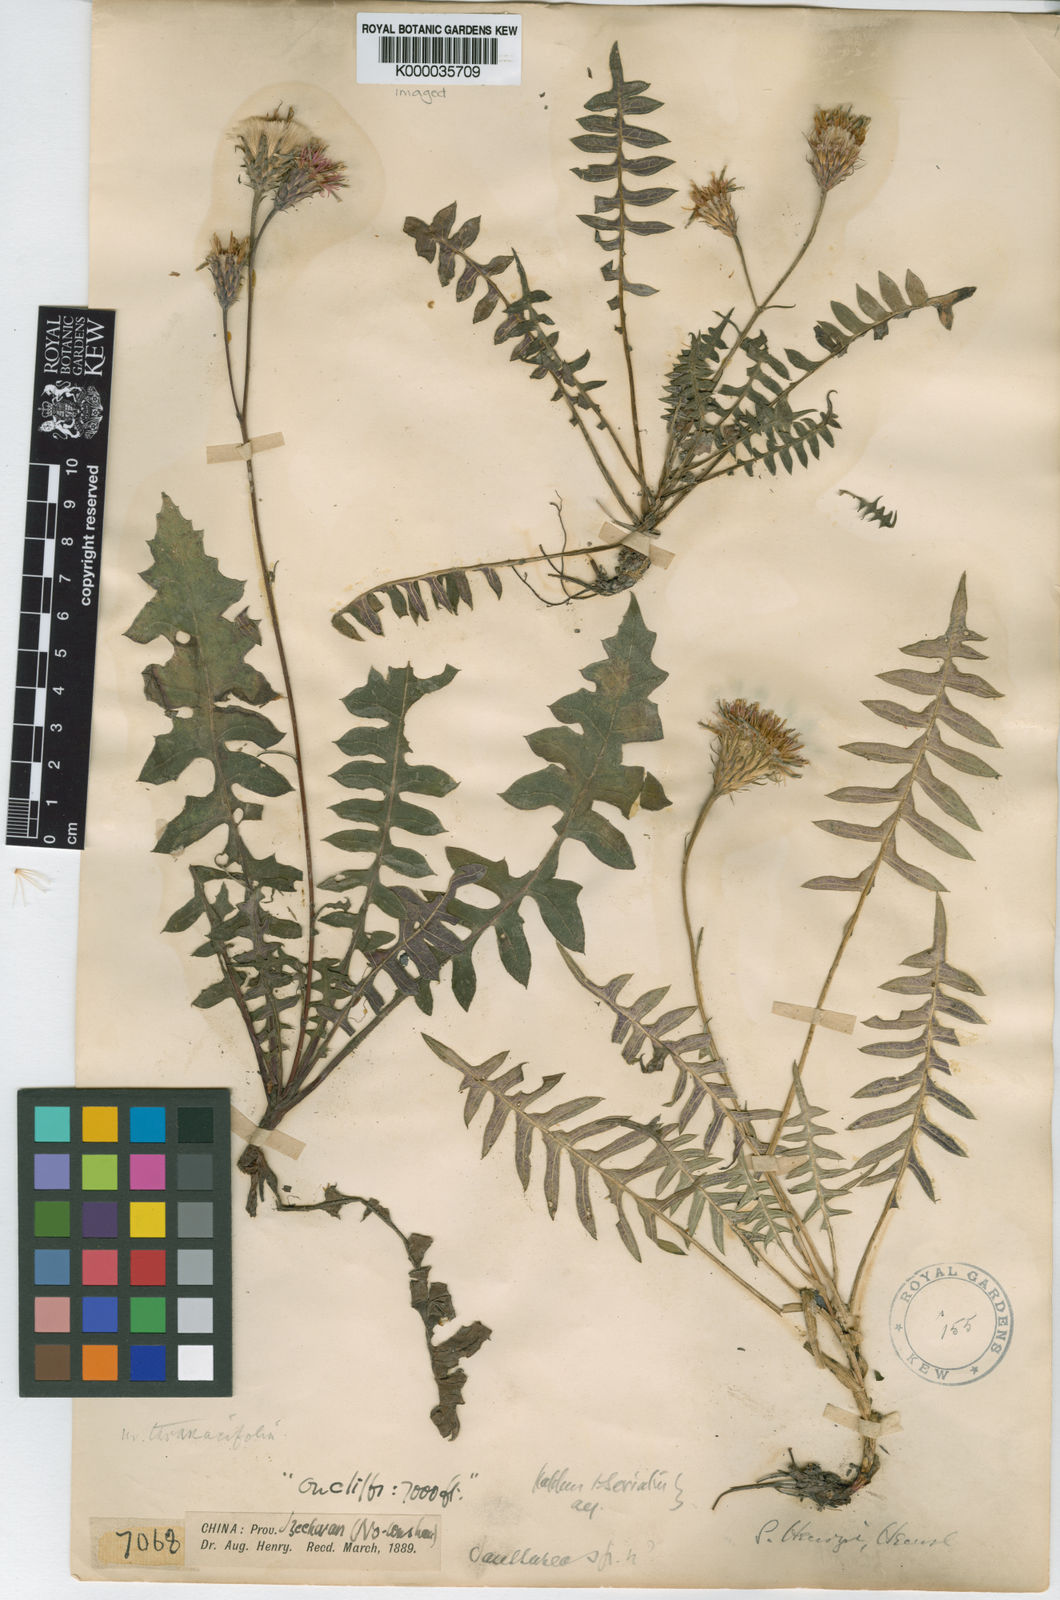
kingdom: Plantae
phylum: Tracheophyta
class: Magnoliopsida
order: Asterales
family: Asteraceae
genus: Saussurea
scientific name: Saussurea henryi
